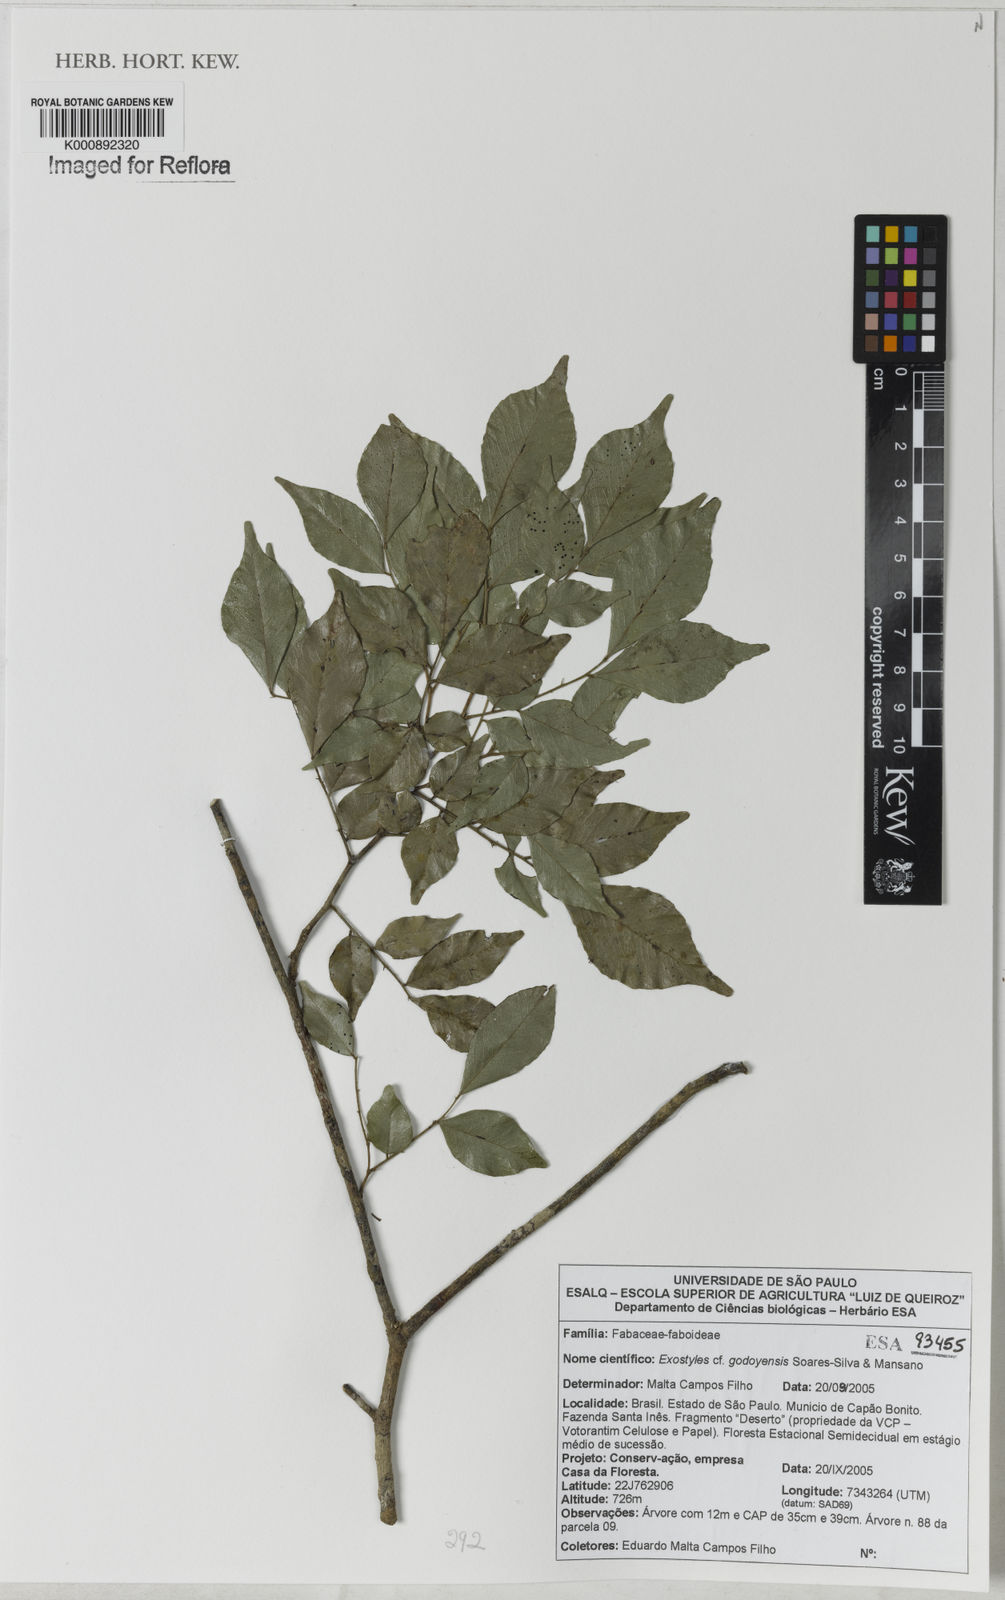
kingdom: Plantae
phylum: Tracheophyta
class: Magnoliopsida
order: Fabales
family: Fabaceae
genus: Exostyles
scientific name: Exostyles godoyensis
